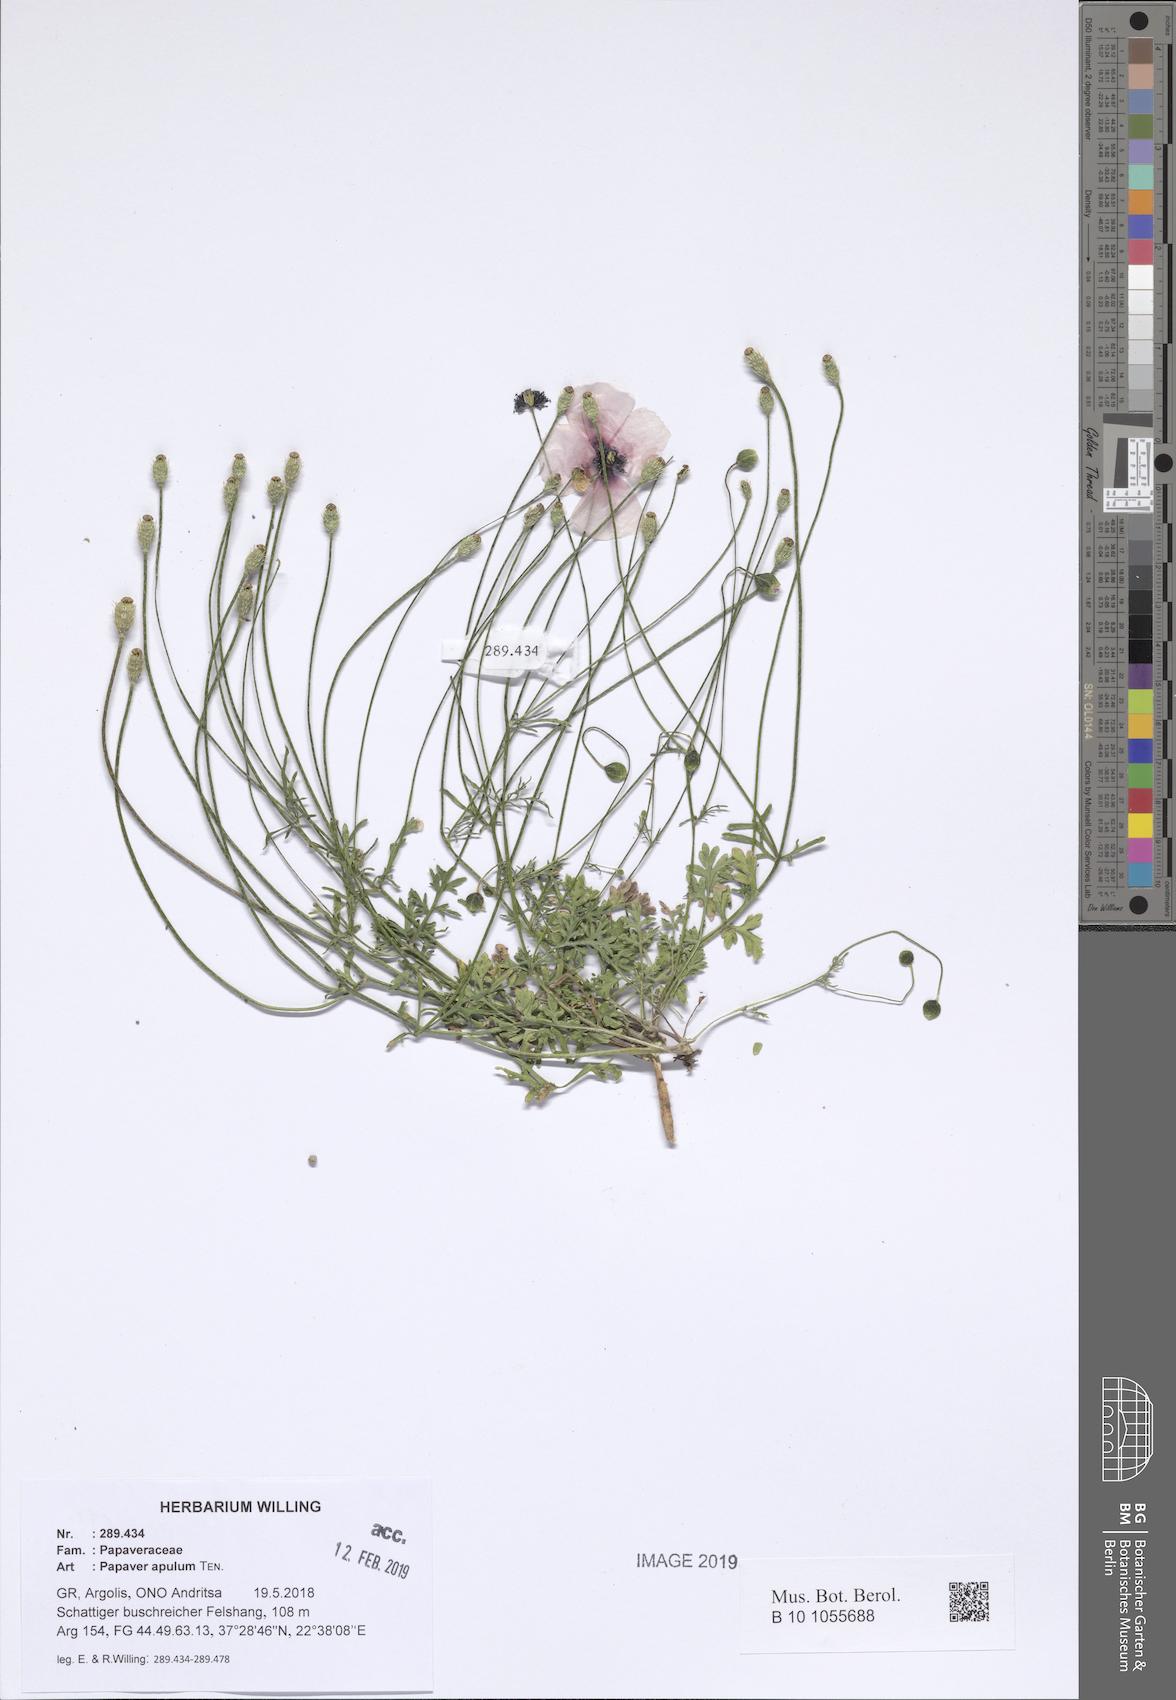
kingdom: Plantae
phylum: Tracheophyta
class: Magnoliopsida
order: Ranunculales
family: Papaveraceae
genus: Roemeria
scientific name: Roemeria apula
